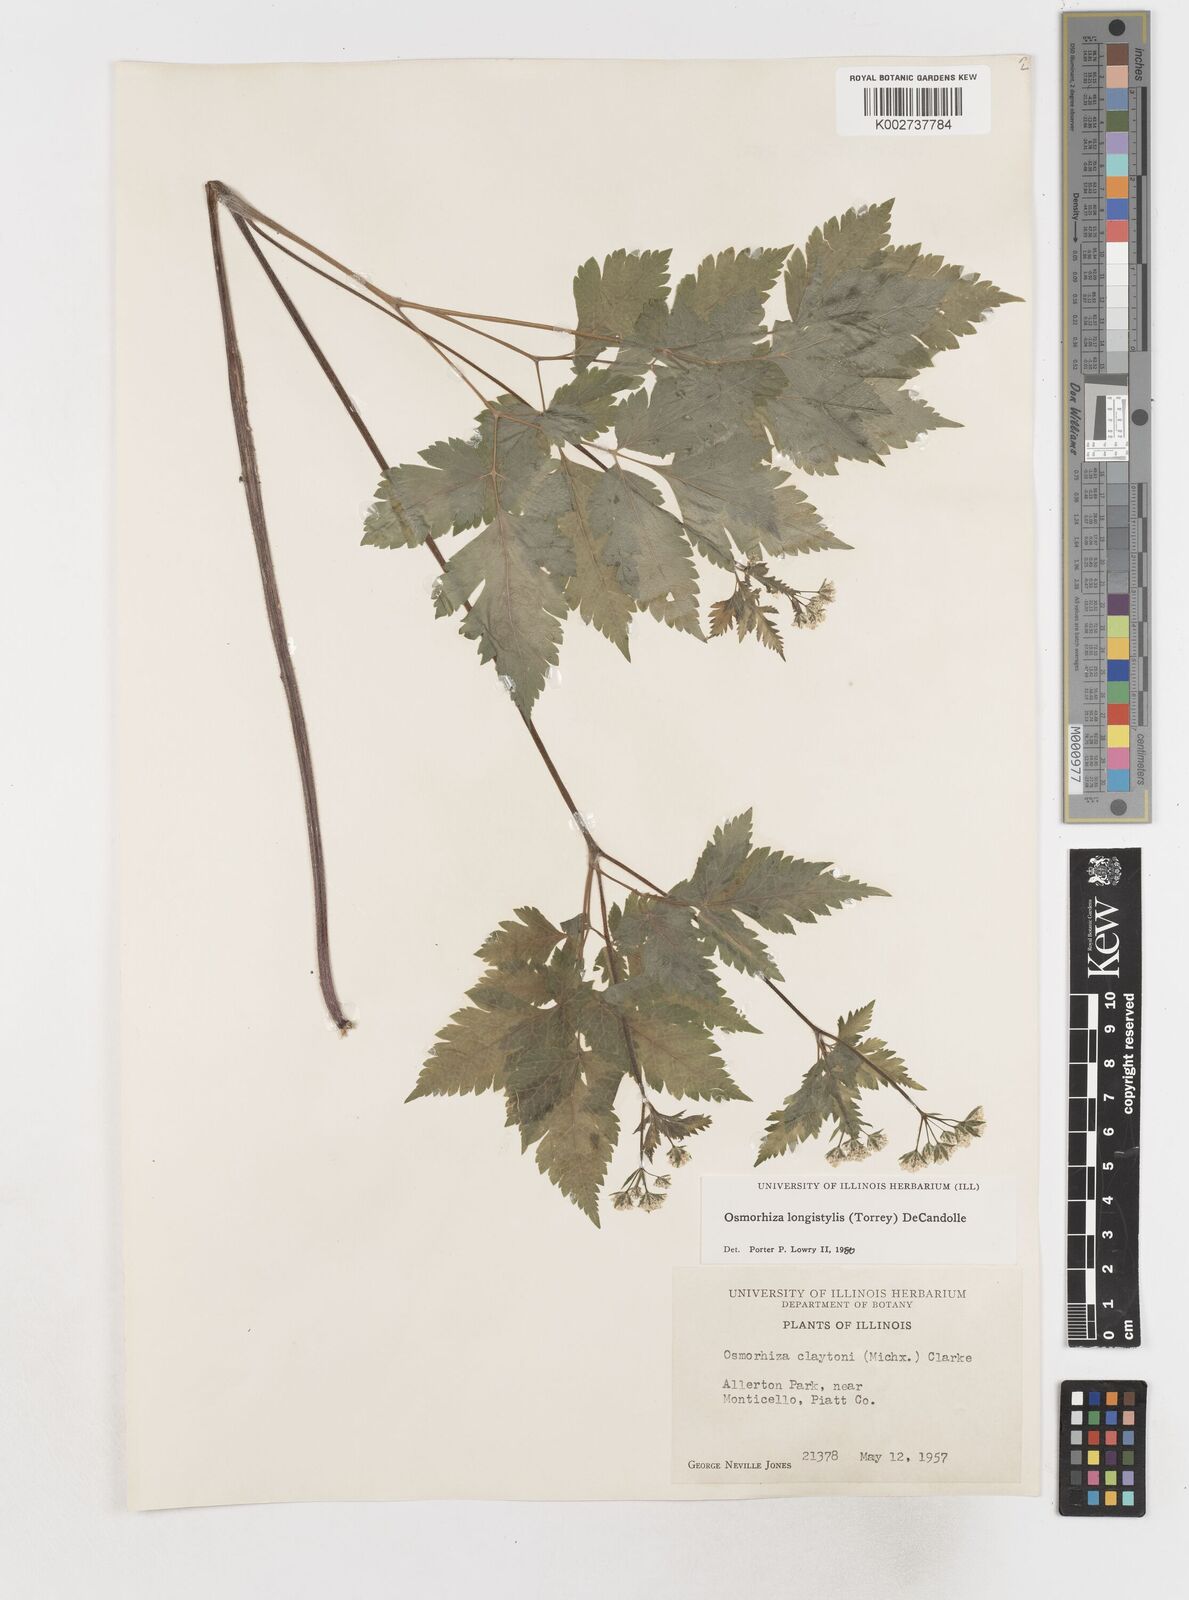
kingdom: Plantae
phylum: Tracheophyta
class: Magnoliopsida
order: Apiales
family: Apiaceae
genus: Osmorhiza
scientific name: Osmorhiza longistylis
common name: Smooth sweet cicely
